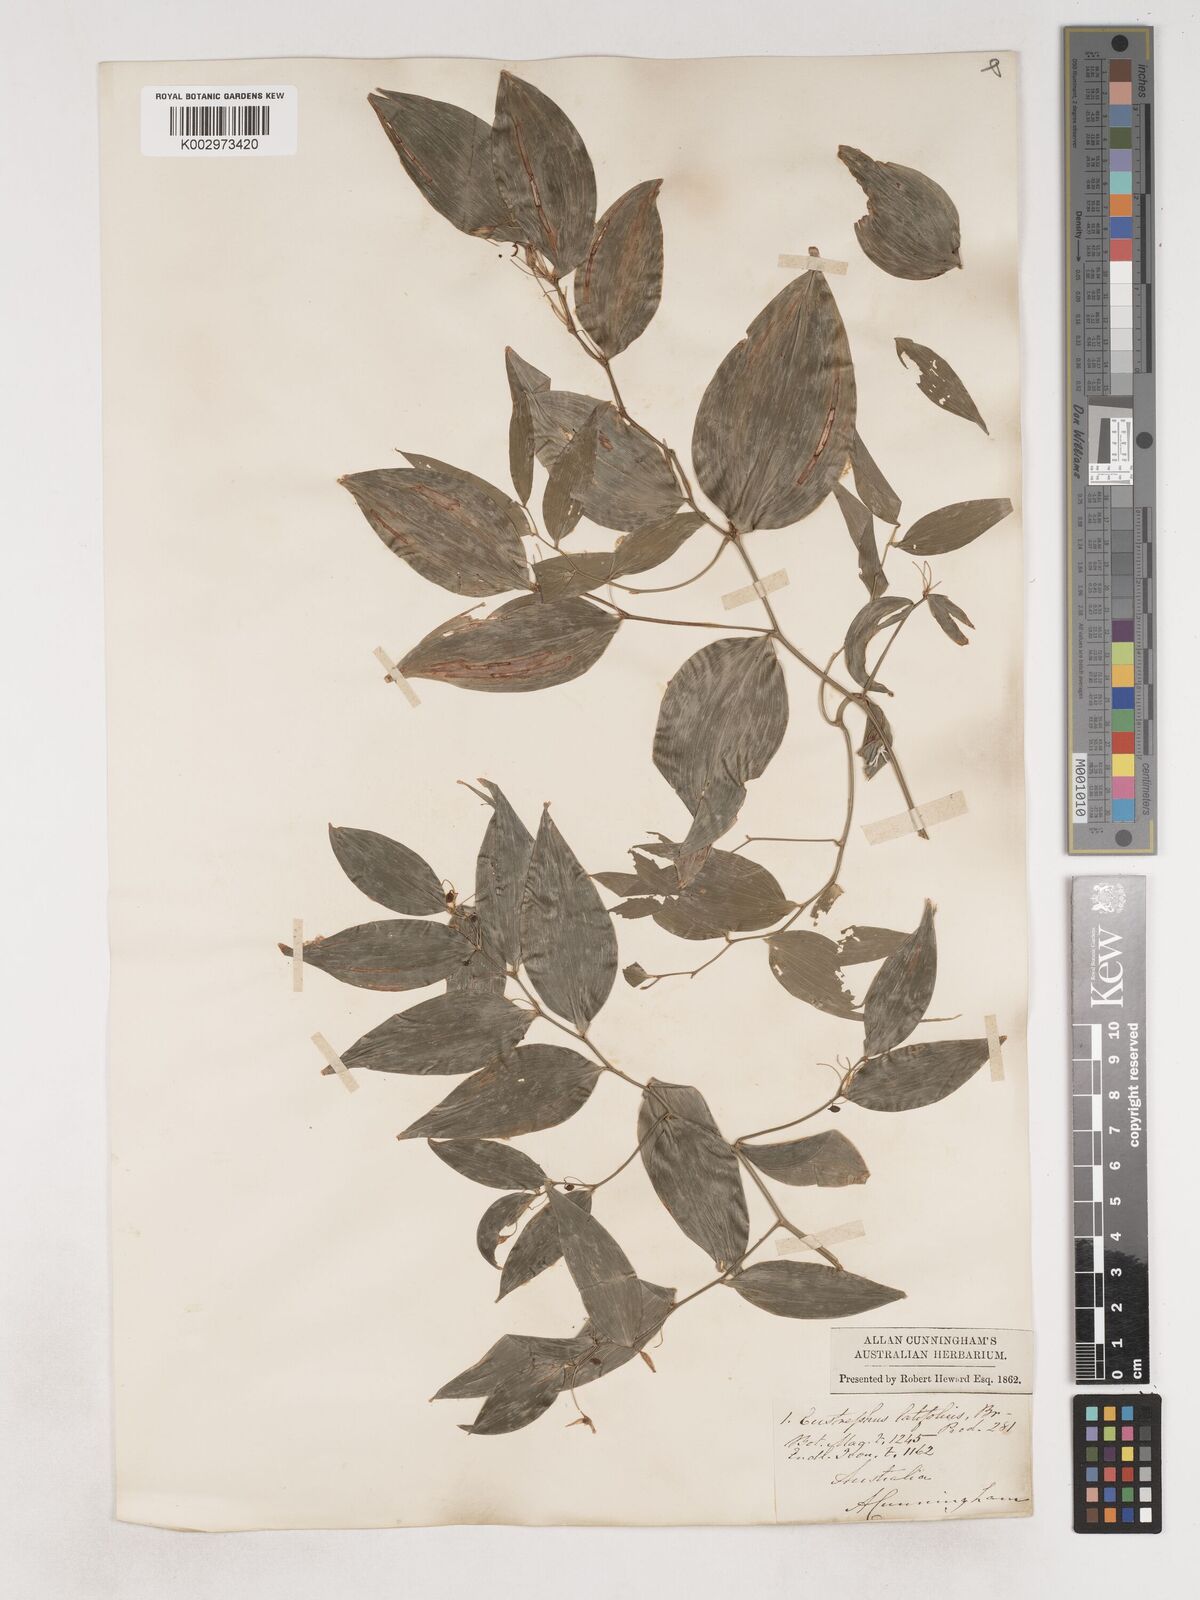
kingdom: Plantae
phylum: Tracheophyta
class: Liliopsida
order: Asparagales
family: Asparagaceae
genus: Eustrephus
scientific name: Eustrephus latifolius
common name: Orangevine
